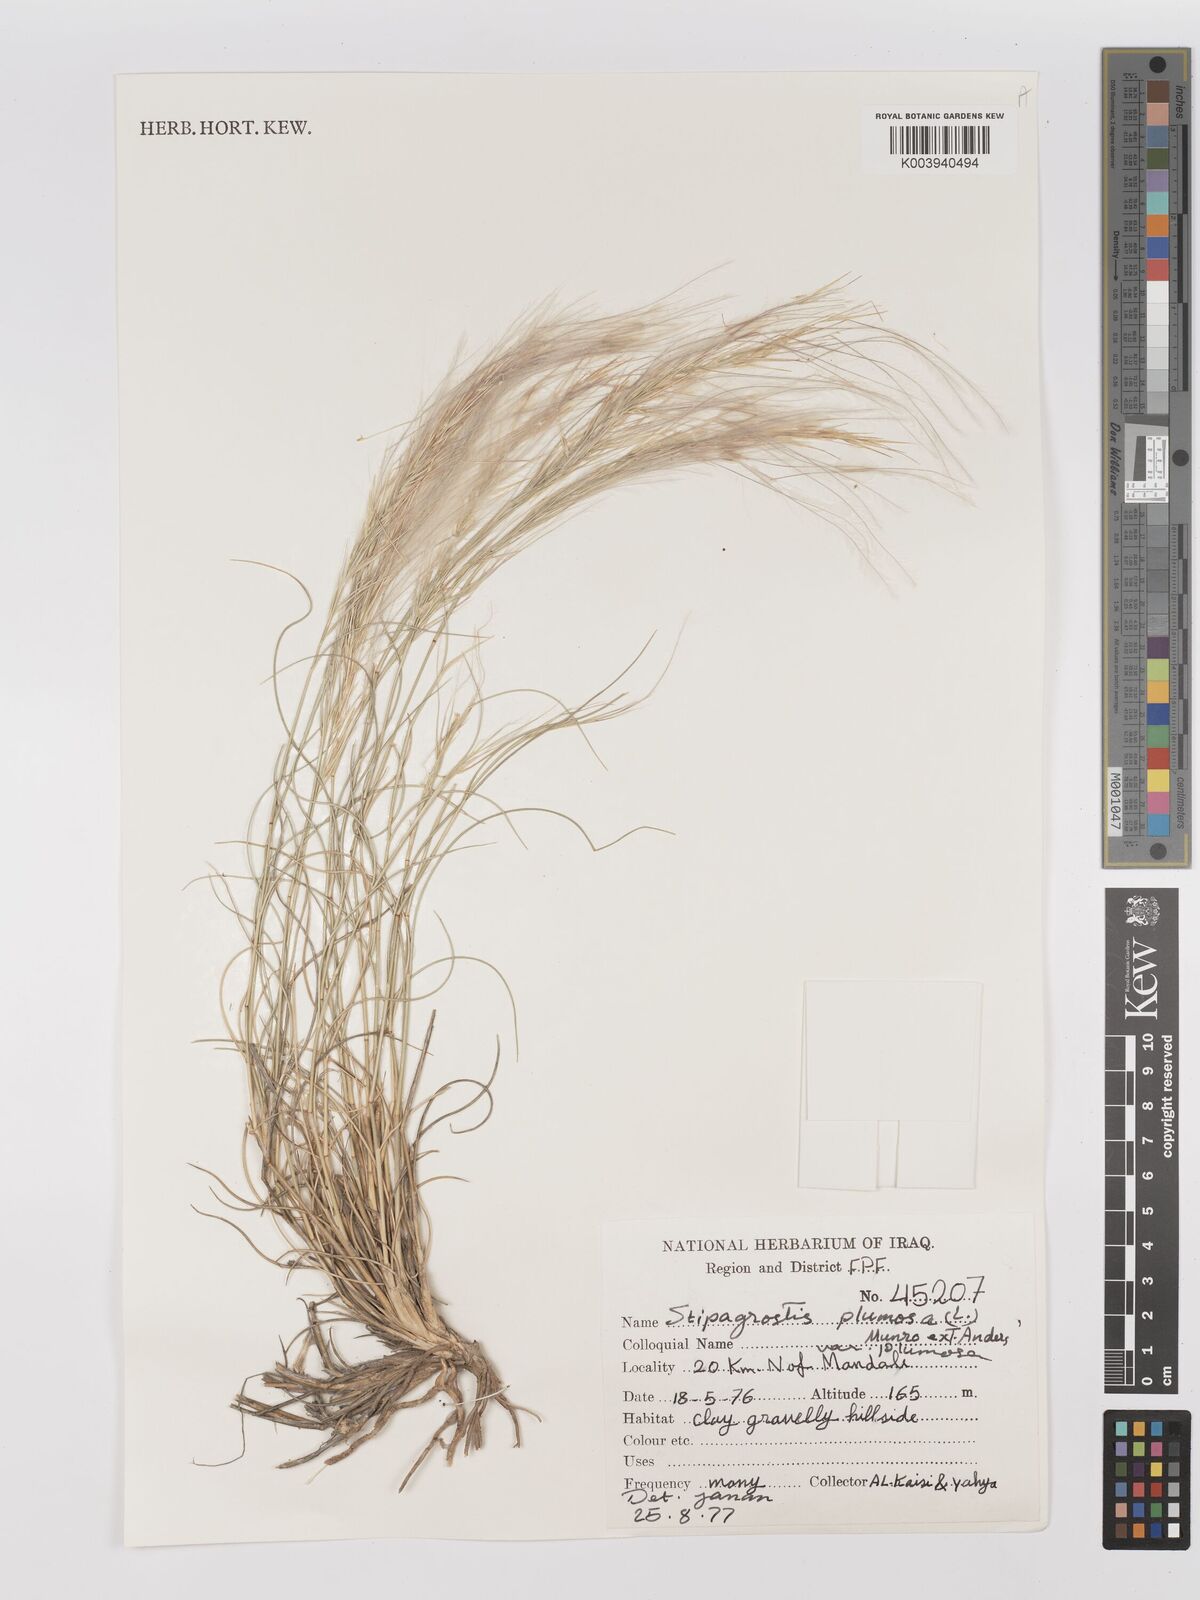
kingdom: Plantae
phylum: Tracheophyta
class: Liliopsida
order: Poales
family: Poaceae
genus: Stipagrostis
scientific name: Stipagrostis plumosa
